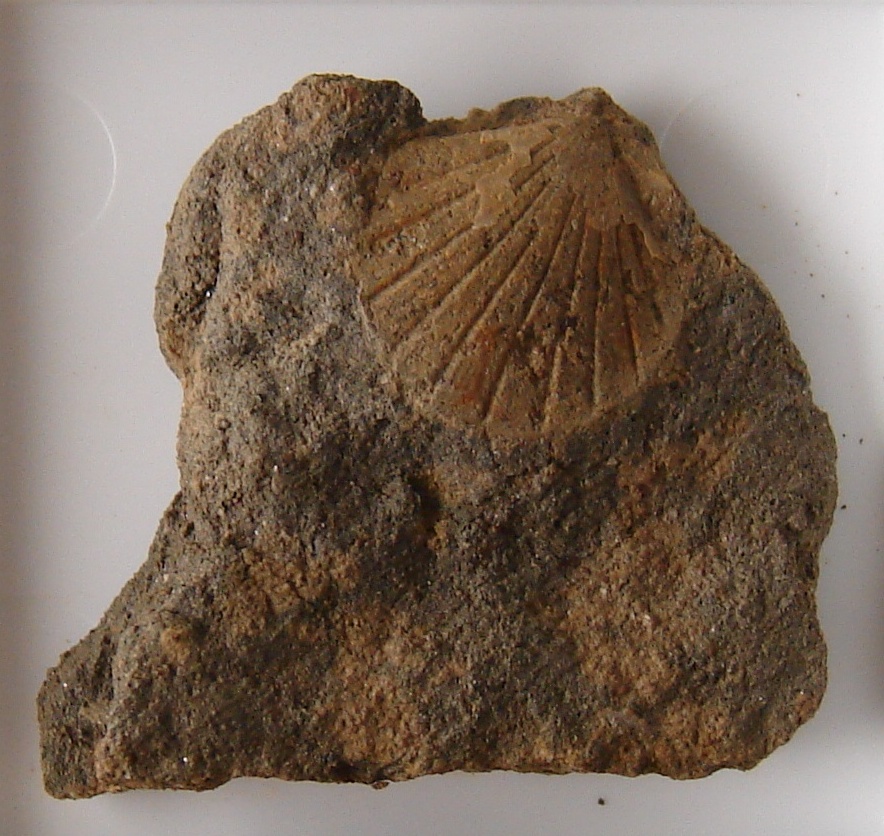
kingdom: Animalia
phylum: Mollusca
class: Bivalvia
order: Pectinida
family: Propeamussiidae
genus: Parvamussium
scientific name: Parvamussium pumilum
